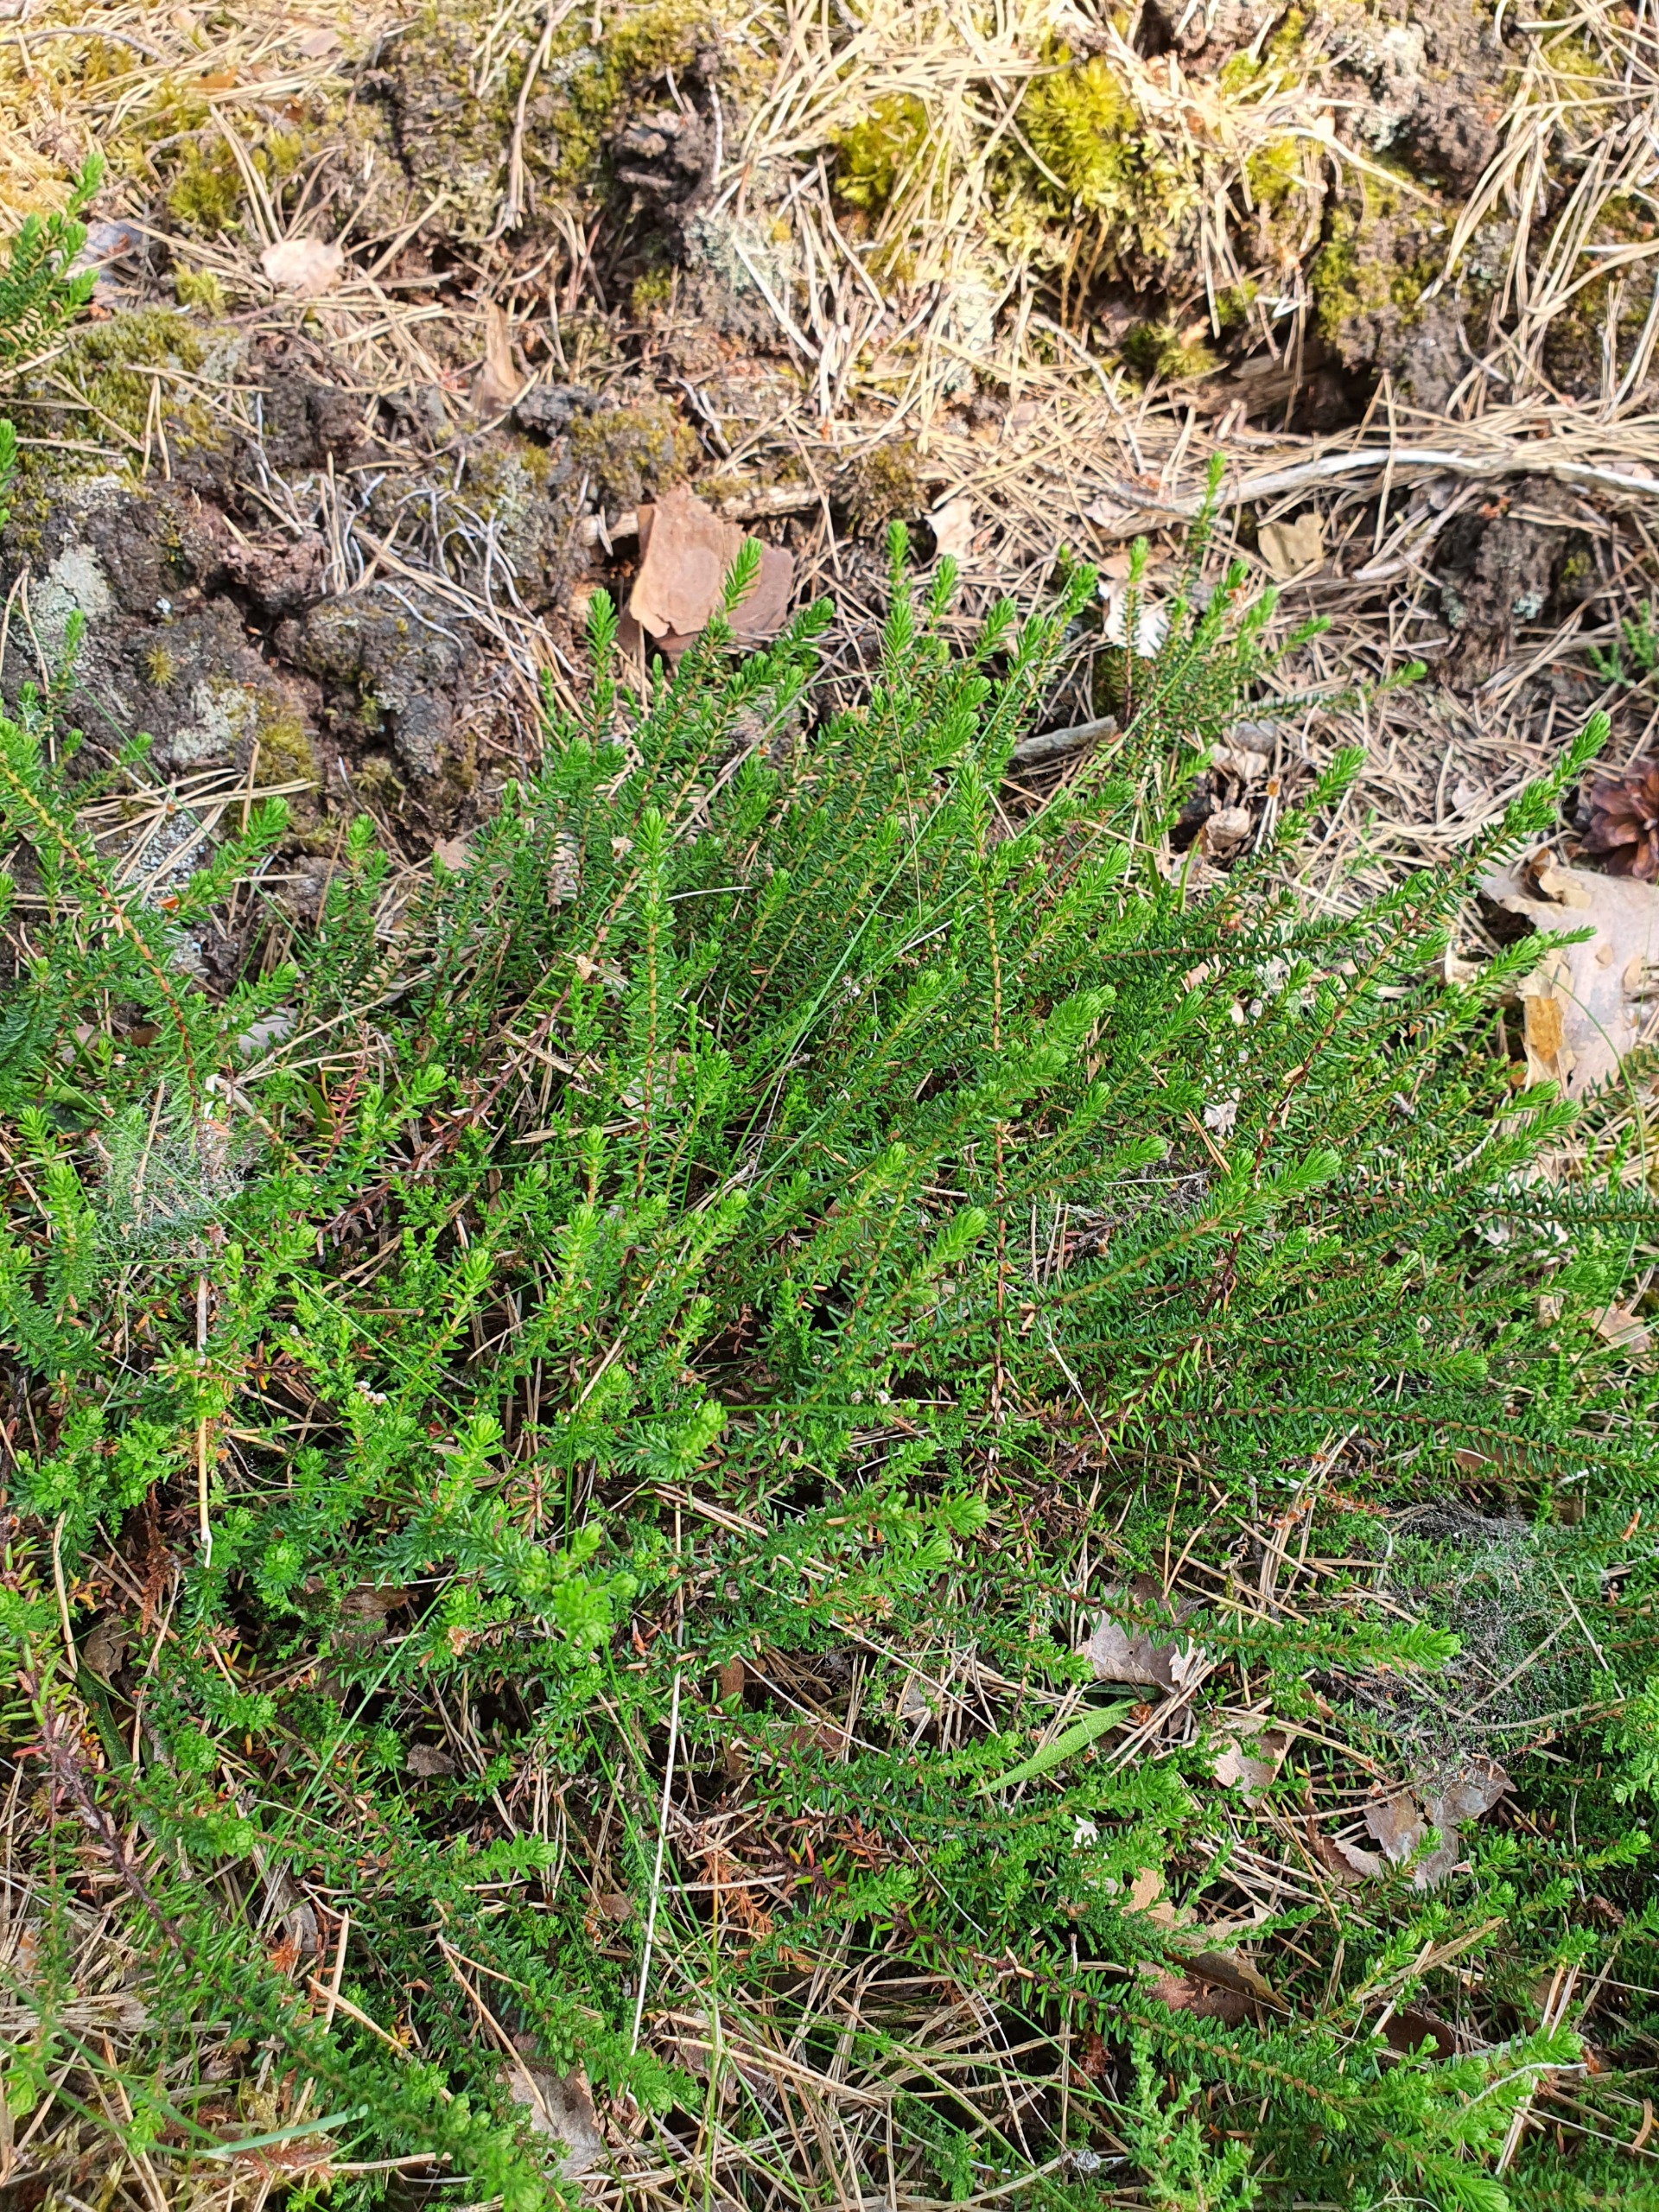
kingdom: Plantae
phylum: Tracheophyta
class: Magnoliopsida
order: Ericales
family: Ericaceae
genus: Empetrum
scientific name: Empetrum nigrum
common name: Revling
